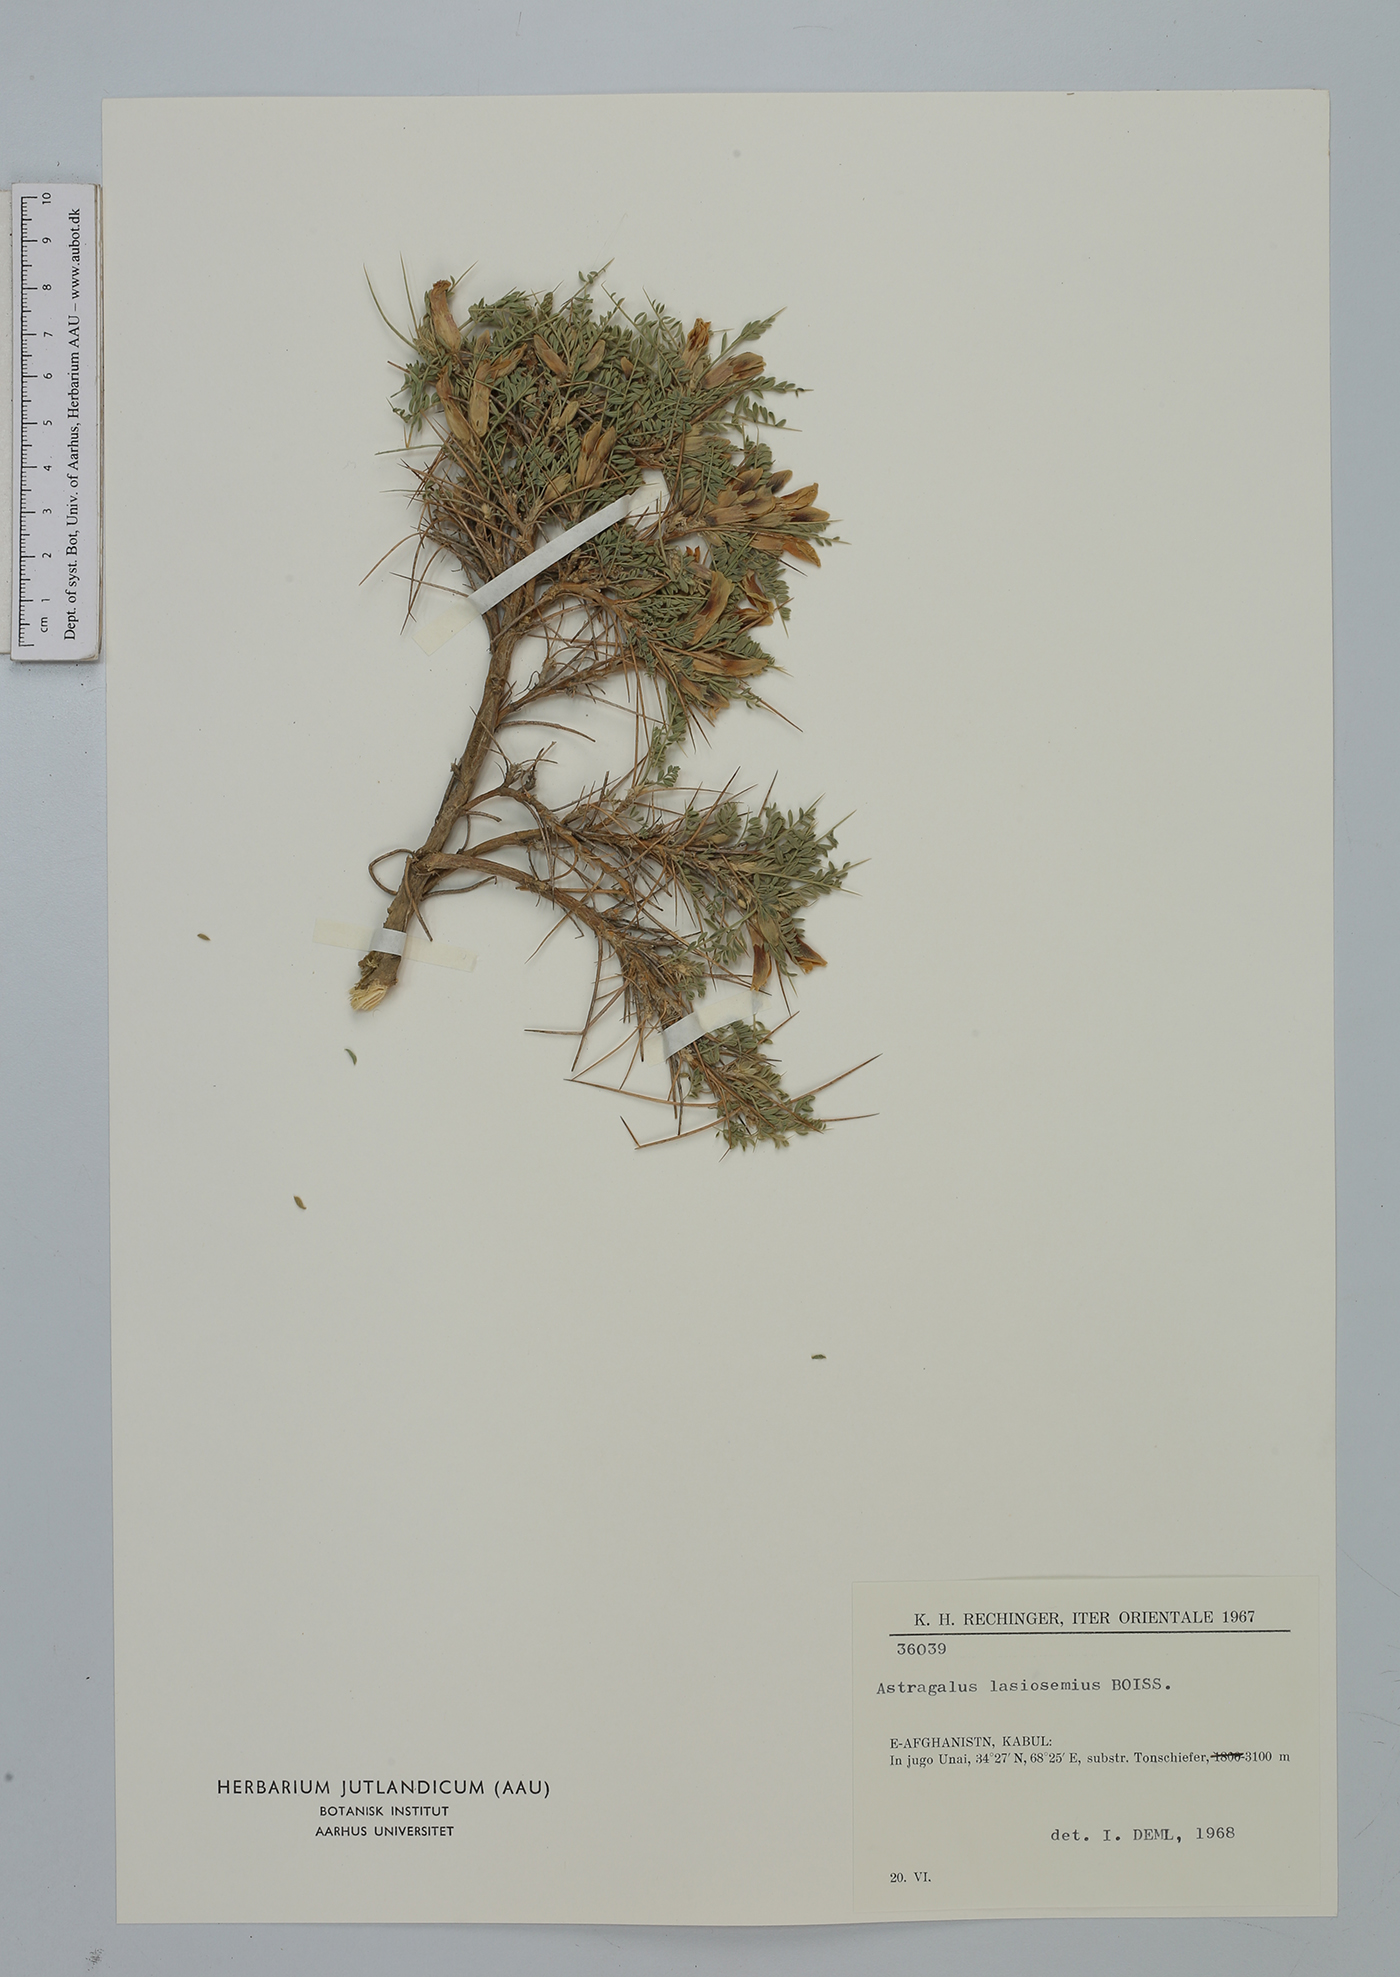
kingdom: Plantae
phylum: Tracheophyta
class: Magnoliopsida
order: Fabales
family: Fabaceae
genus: Astragalus
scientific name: Astragalus lasiosemius
